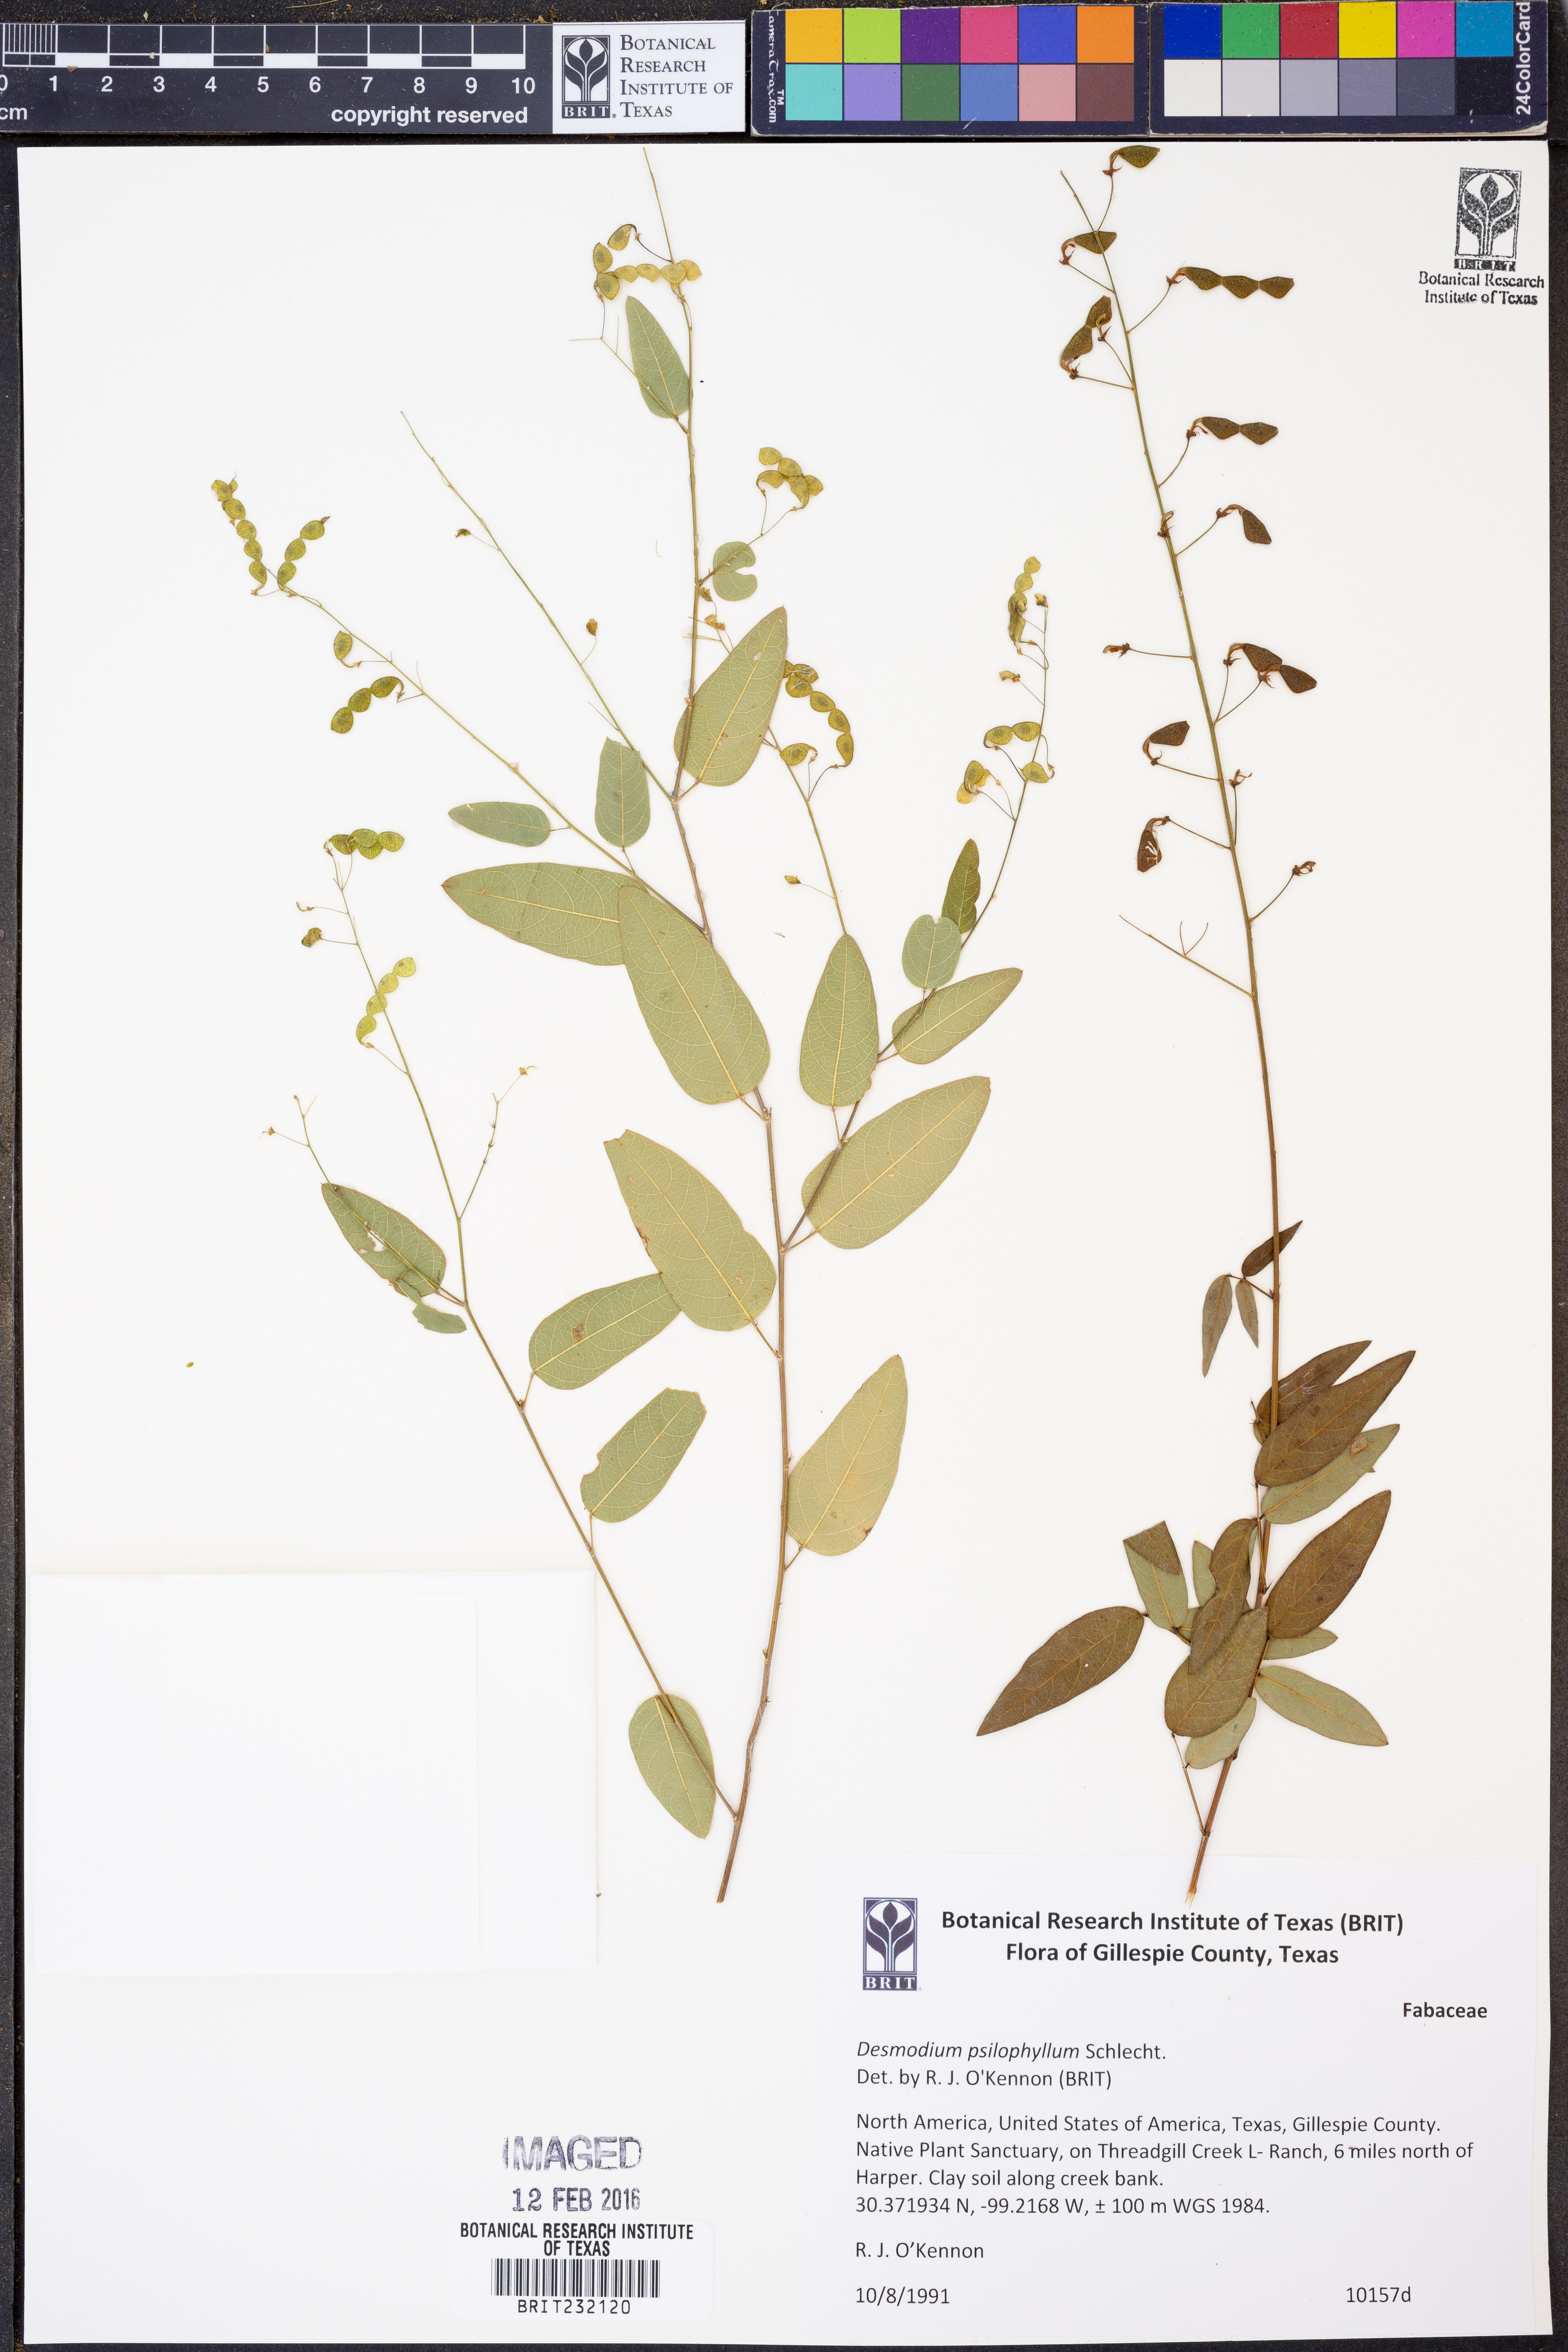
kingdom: Plantae
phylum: Tracheophyta
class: Magnoliopsida
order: Fabales
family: Fabaceae
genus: Desmodium
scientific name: Desmodium psilophyllum
